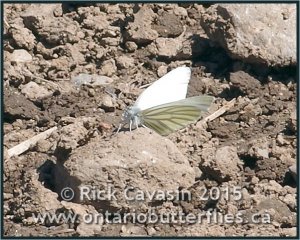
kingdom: Animalia
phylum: Arthropoda
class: Insecta
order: Lepidoptera
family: Pieridae
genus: Pieris
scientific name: Pieris oleracea
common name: Mustard White
